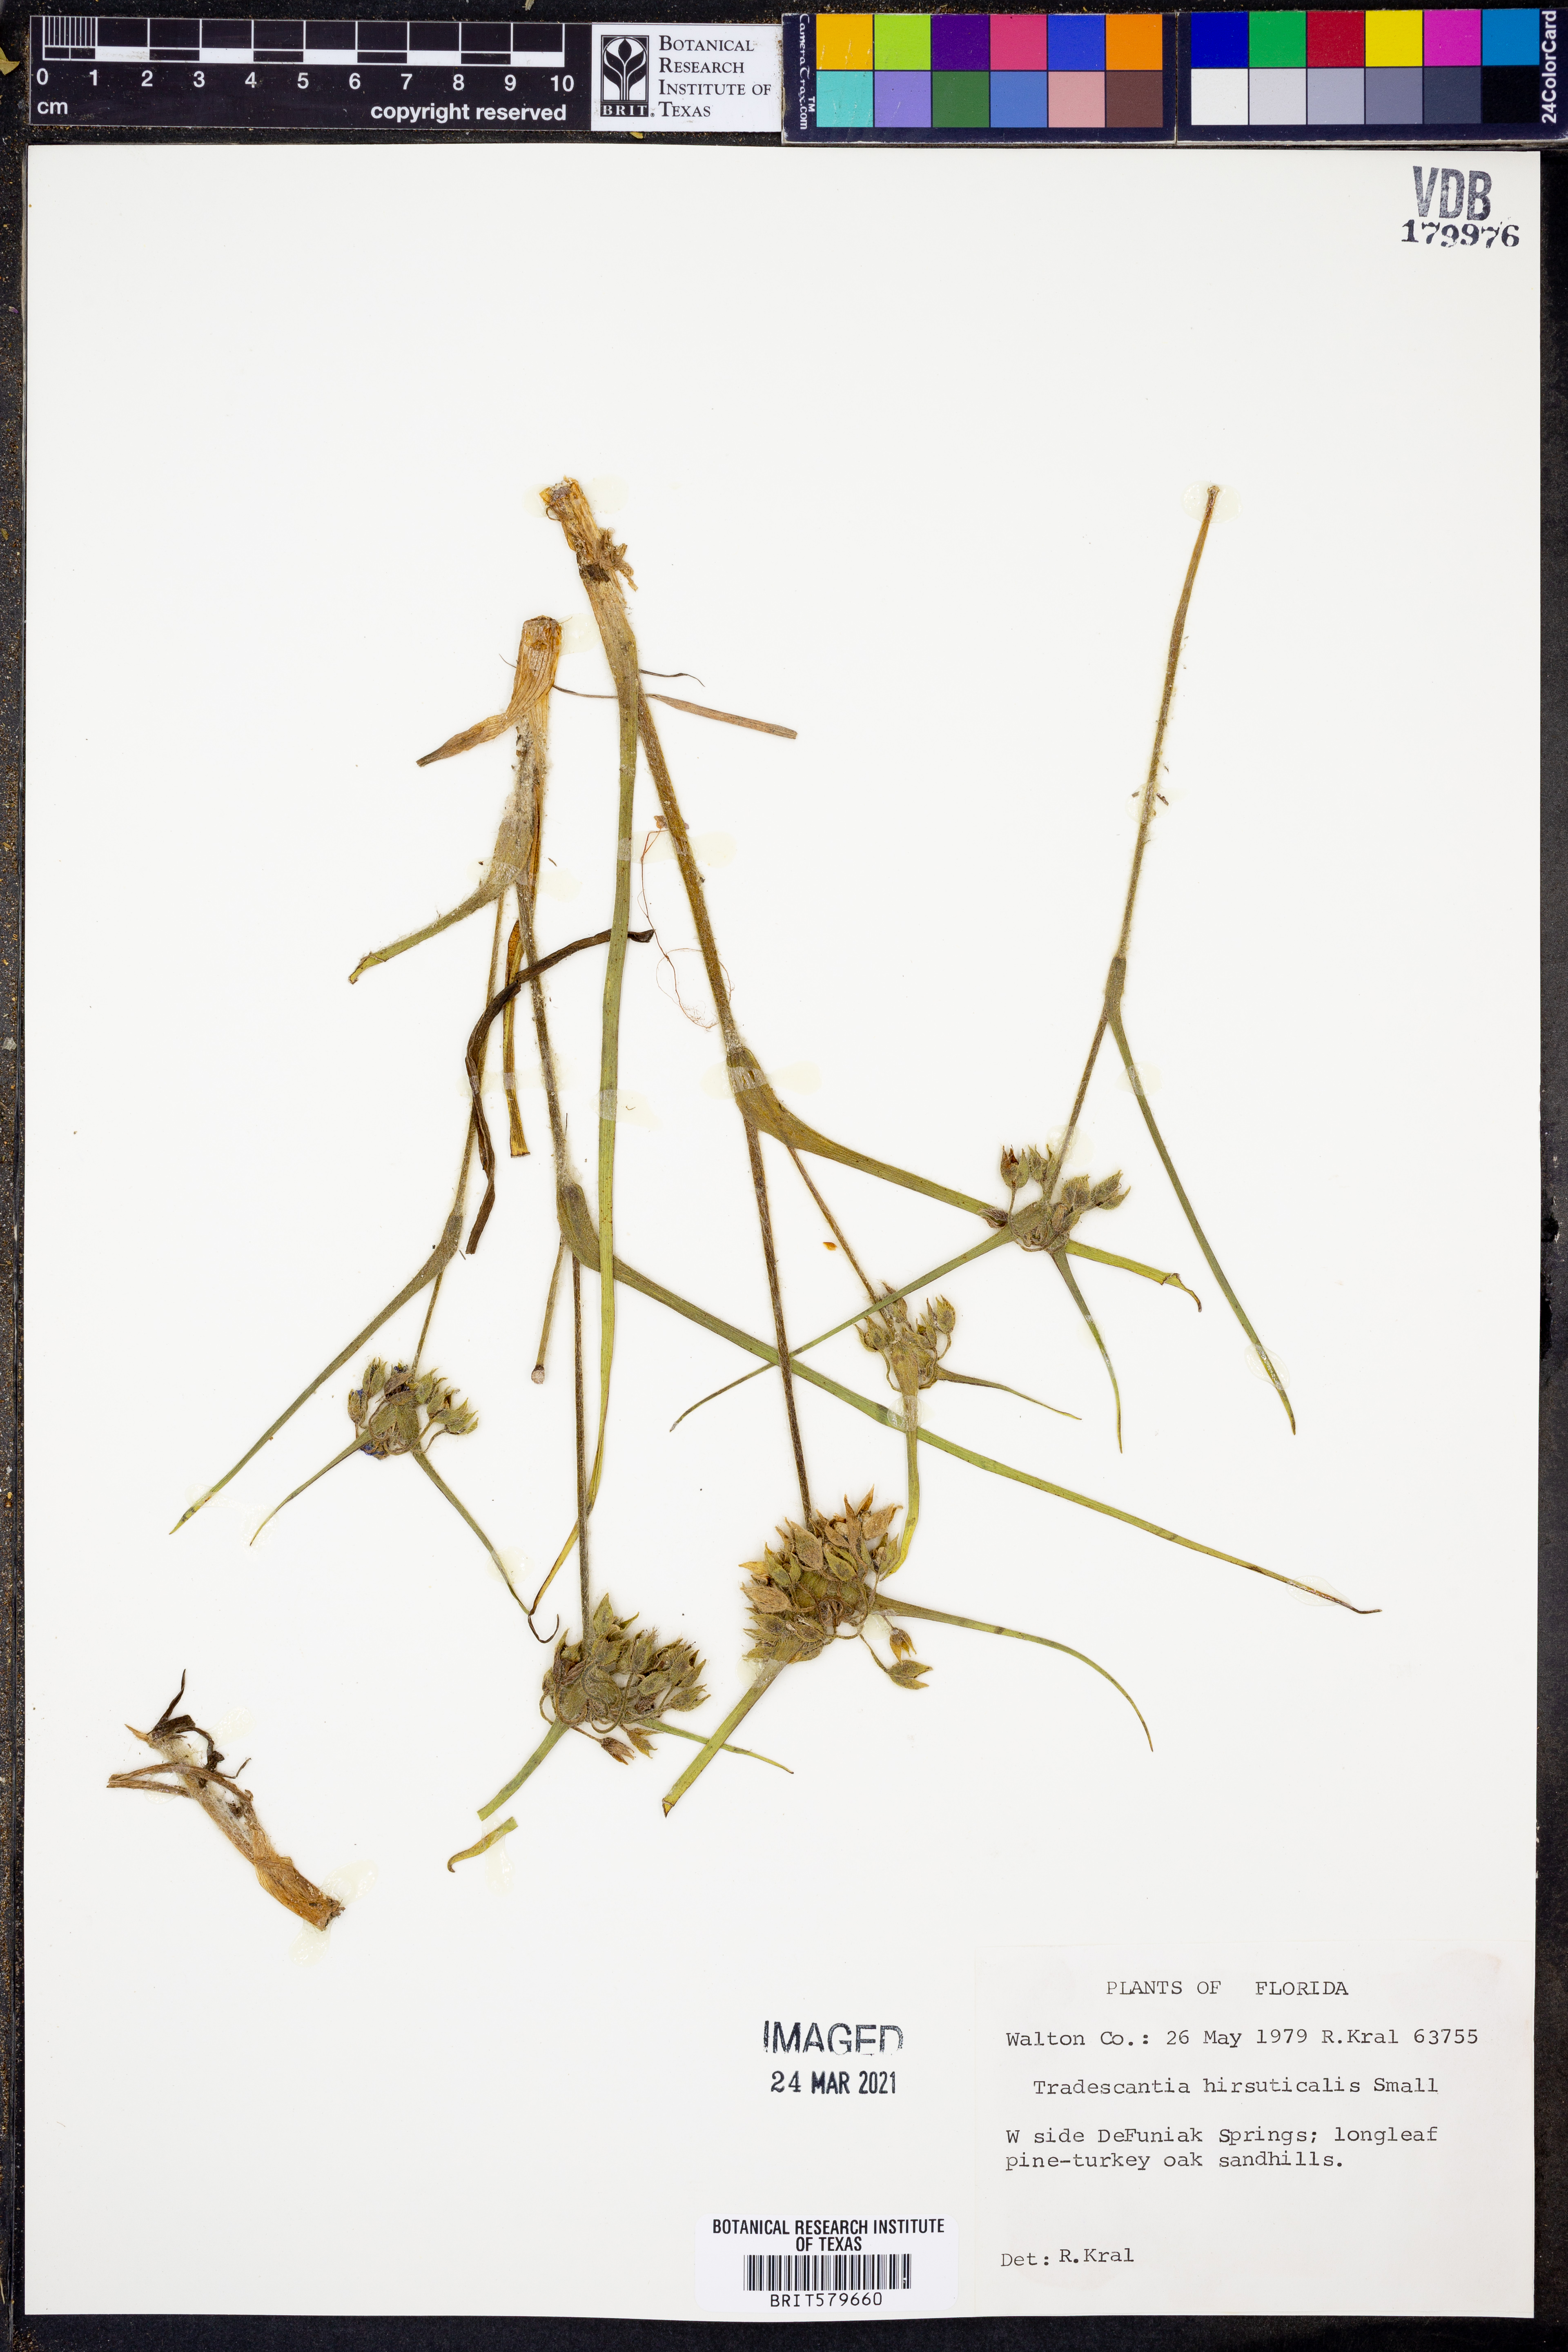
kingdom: Plantae
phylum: Tracheophyta
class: Liliopsida
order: Commelinales
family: Commelinaceae
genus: Tradescantia
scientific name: Tradescantia hirsuticaulis
